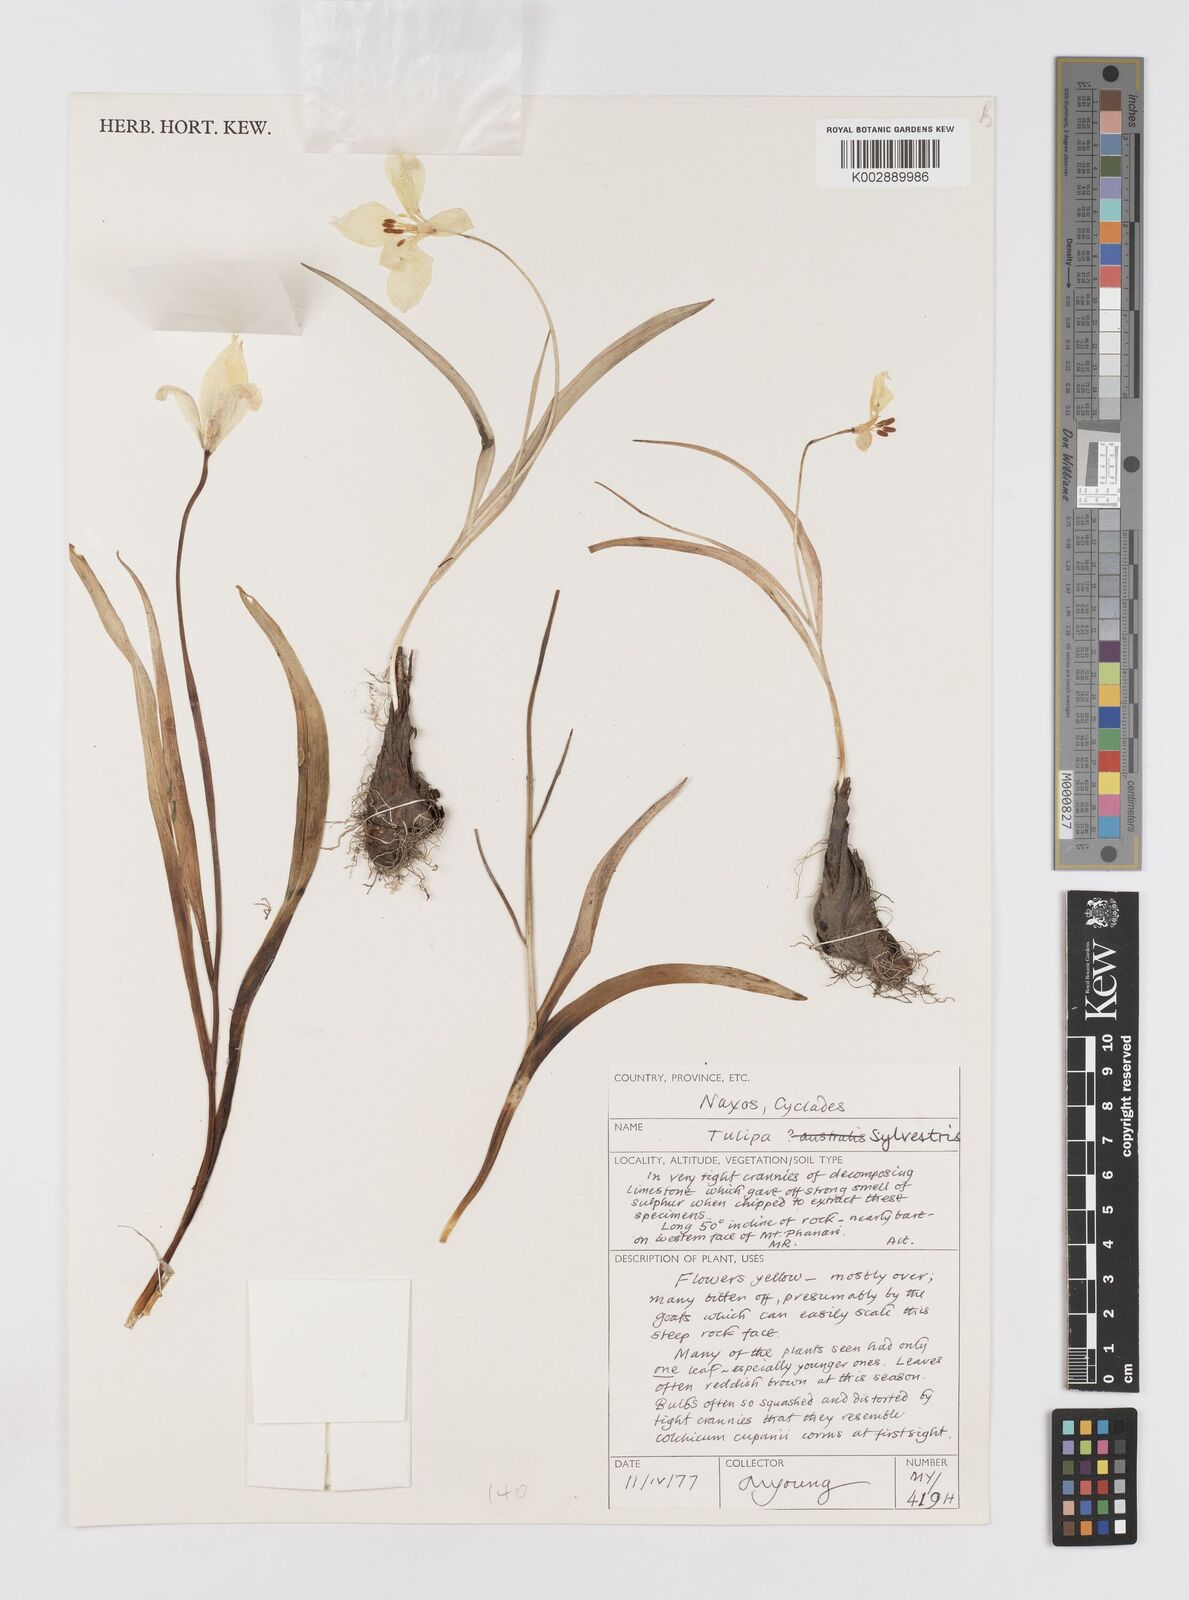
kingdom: Plantae
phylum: Tracheophyta
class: Liliopsida
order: Liliales
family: Liliaceae
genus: Tulipa
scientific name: Tulipa sylvestris
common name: Wild tulip
